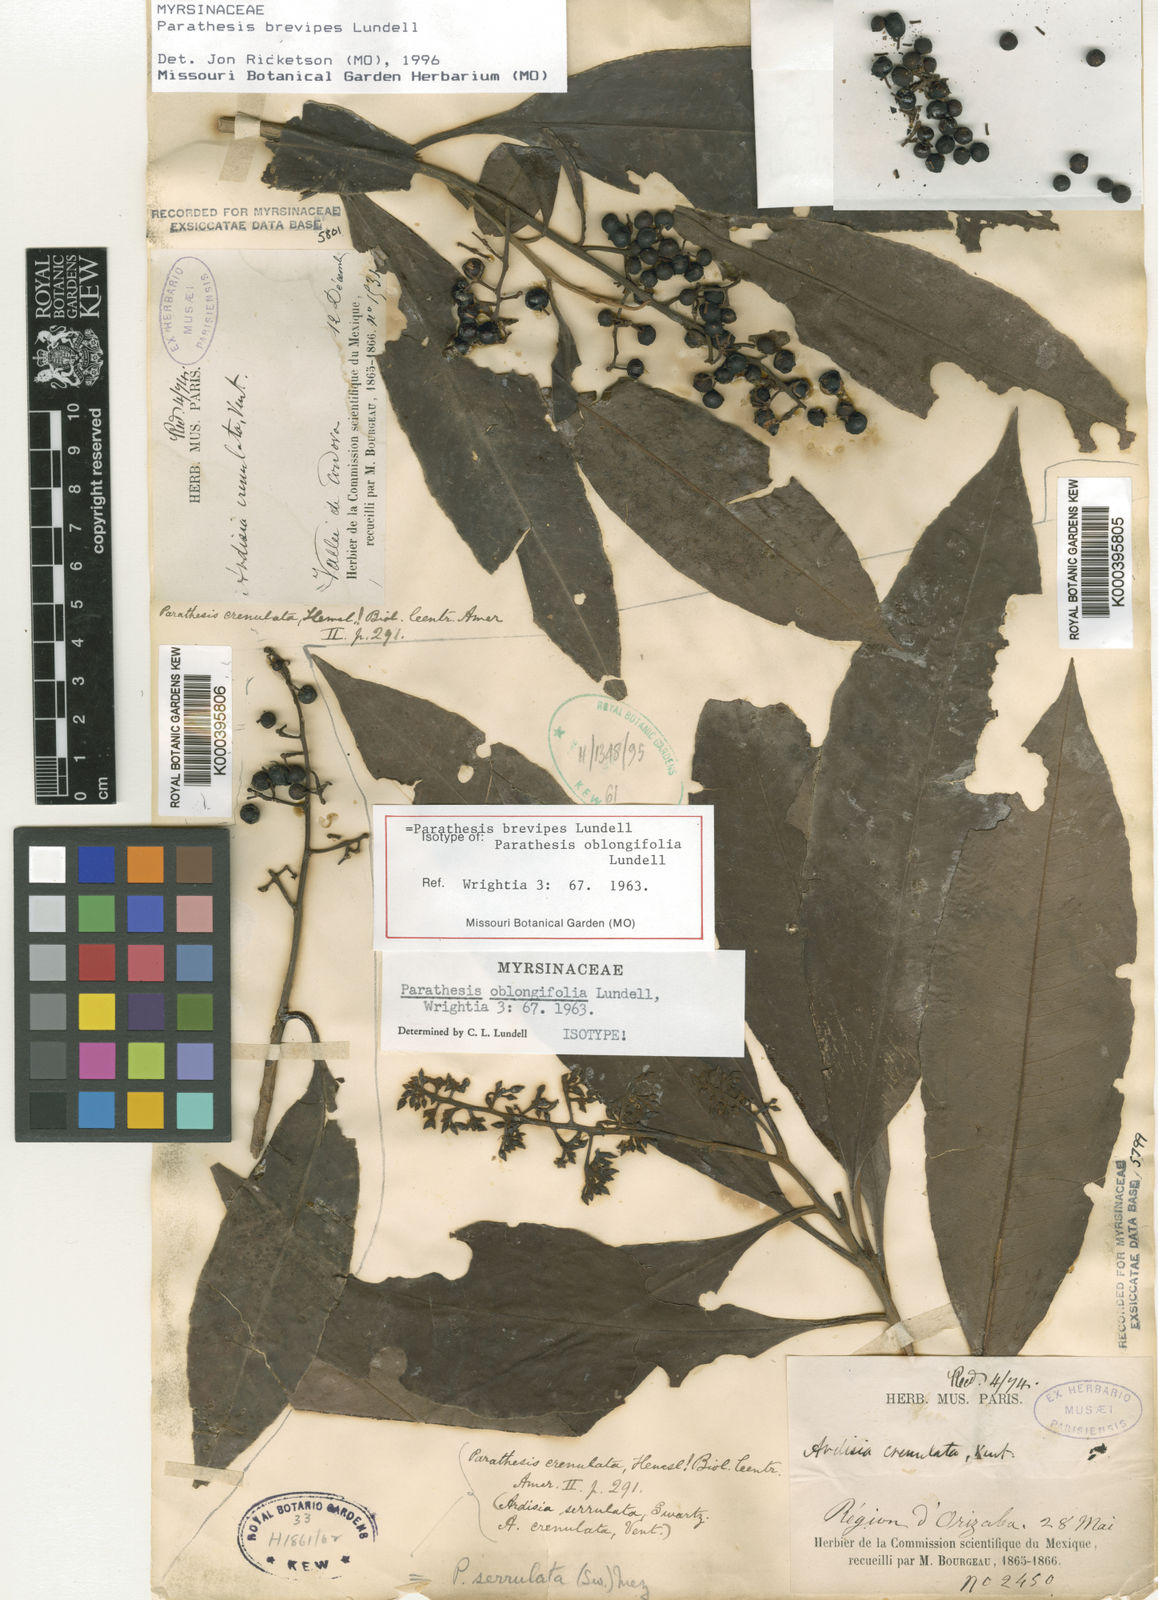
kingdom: Plantae
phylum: Tracheophyta
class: Magnoliopsida
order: Ericales
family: Primulaceae
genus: Parathesis
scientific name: Parathesis donnell-smithii
